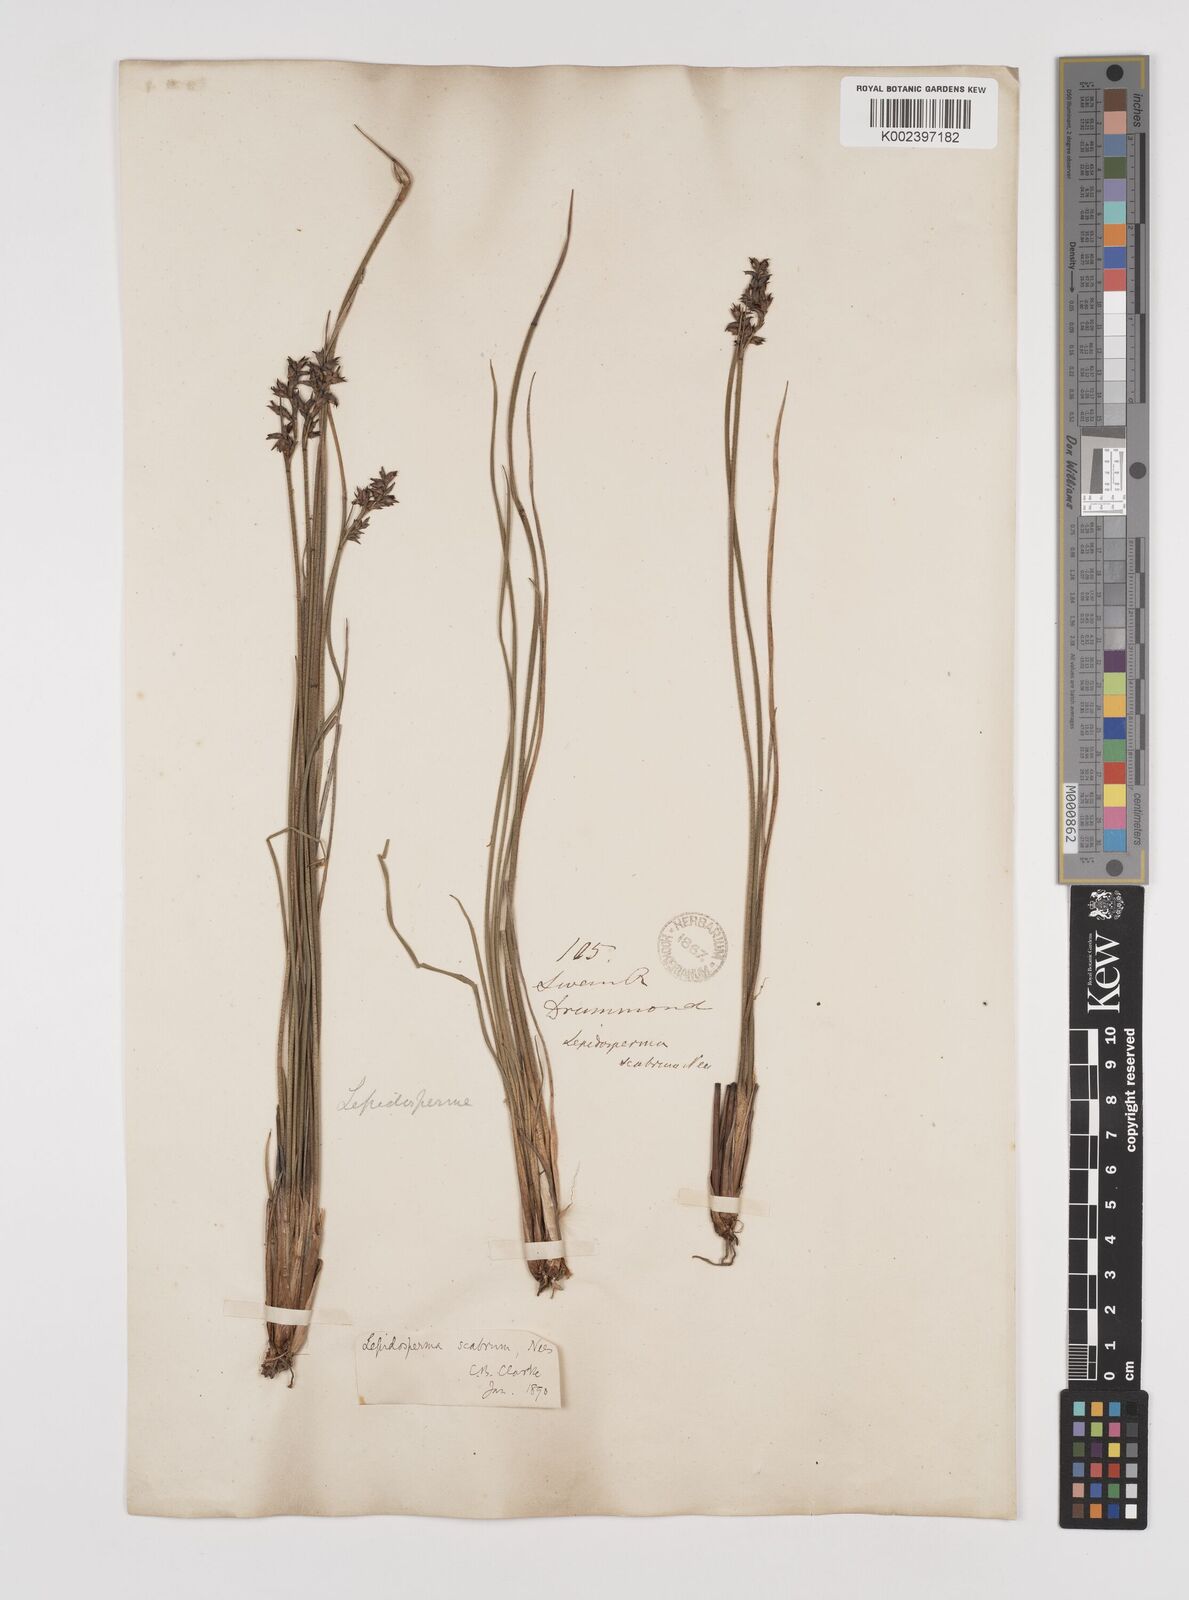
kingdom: Plantae
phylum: Tracheophyta
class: Liliopsida
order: Poales
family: Cyperaceae
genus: Lepidosperma
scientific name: Lepidosperma scabrum
